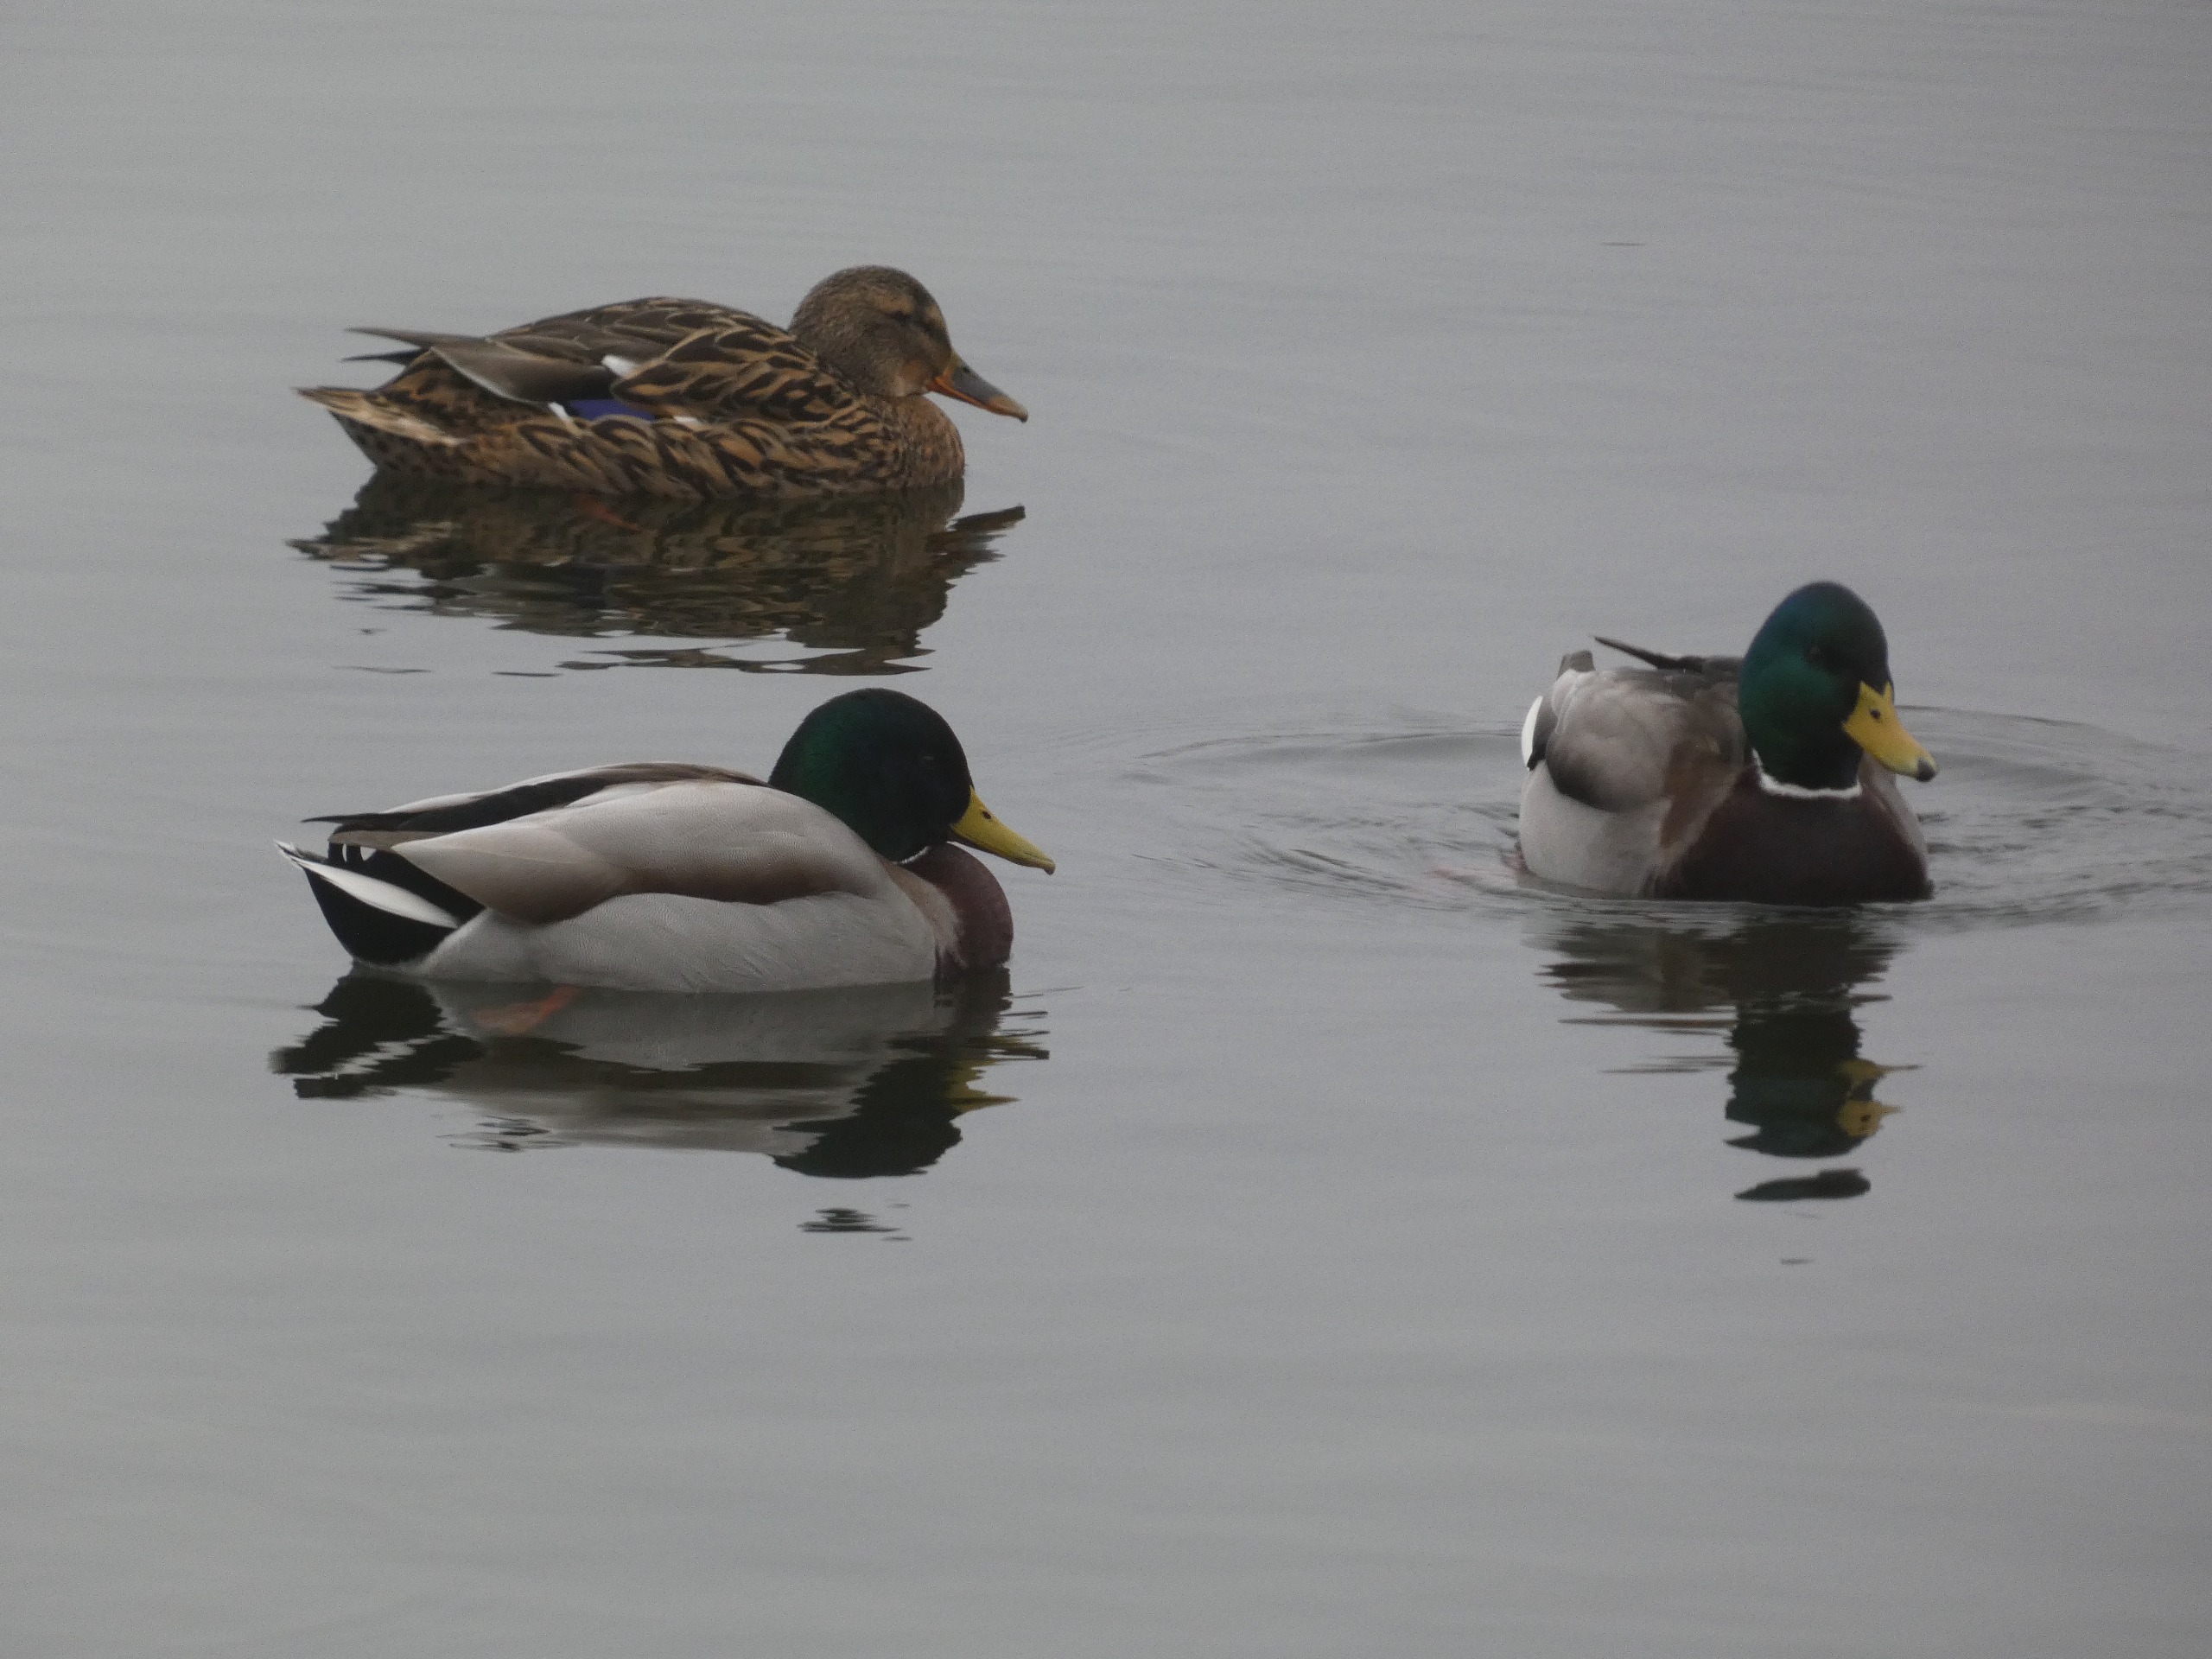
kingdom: Animalia
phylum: Chordata
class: Aves
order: Anseriformes
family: Anatidae
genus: Anas
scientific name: Anas platyrhynchos
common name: Gråand
